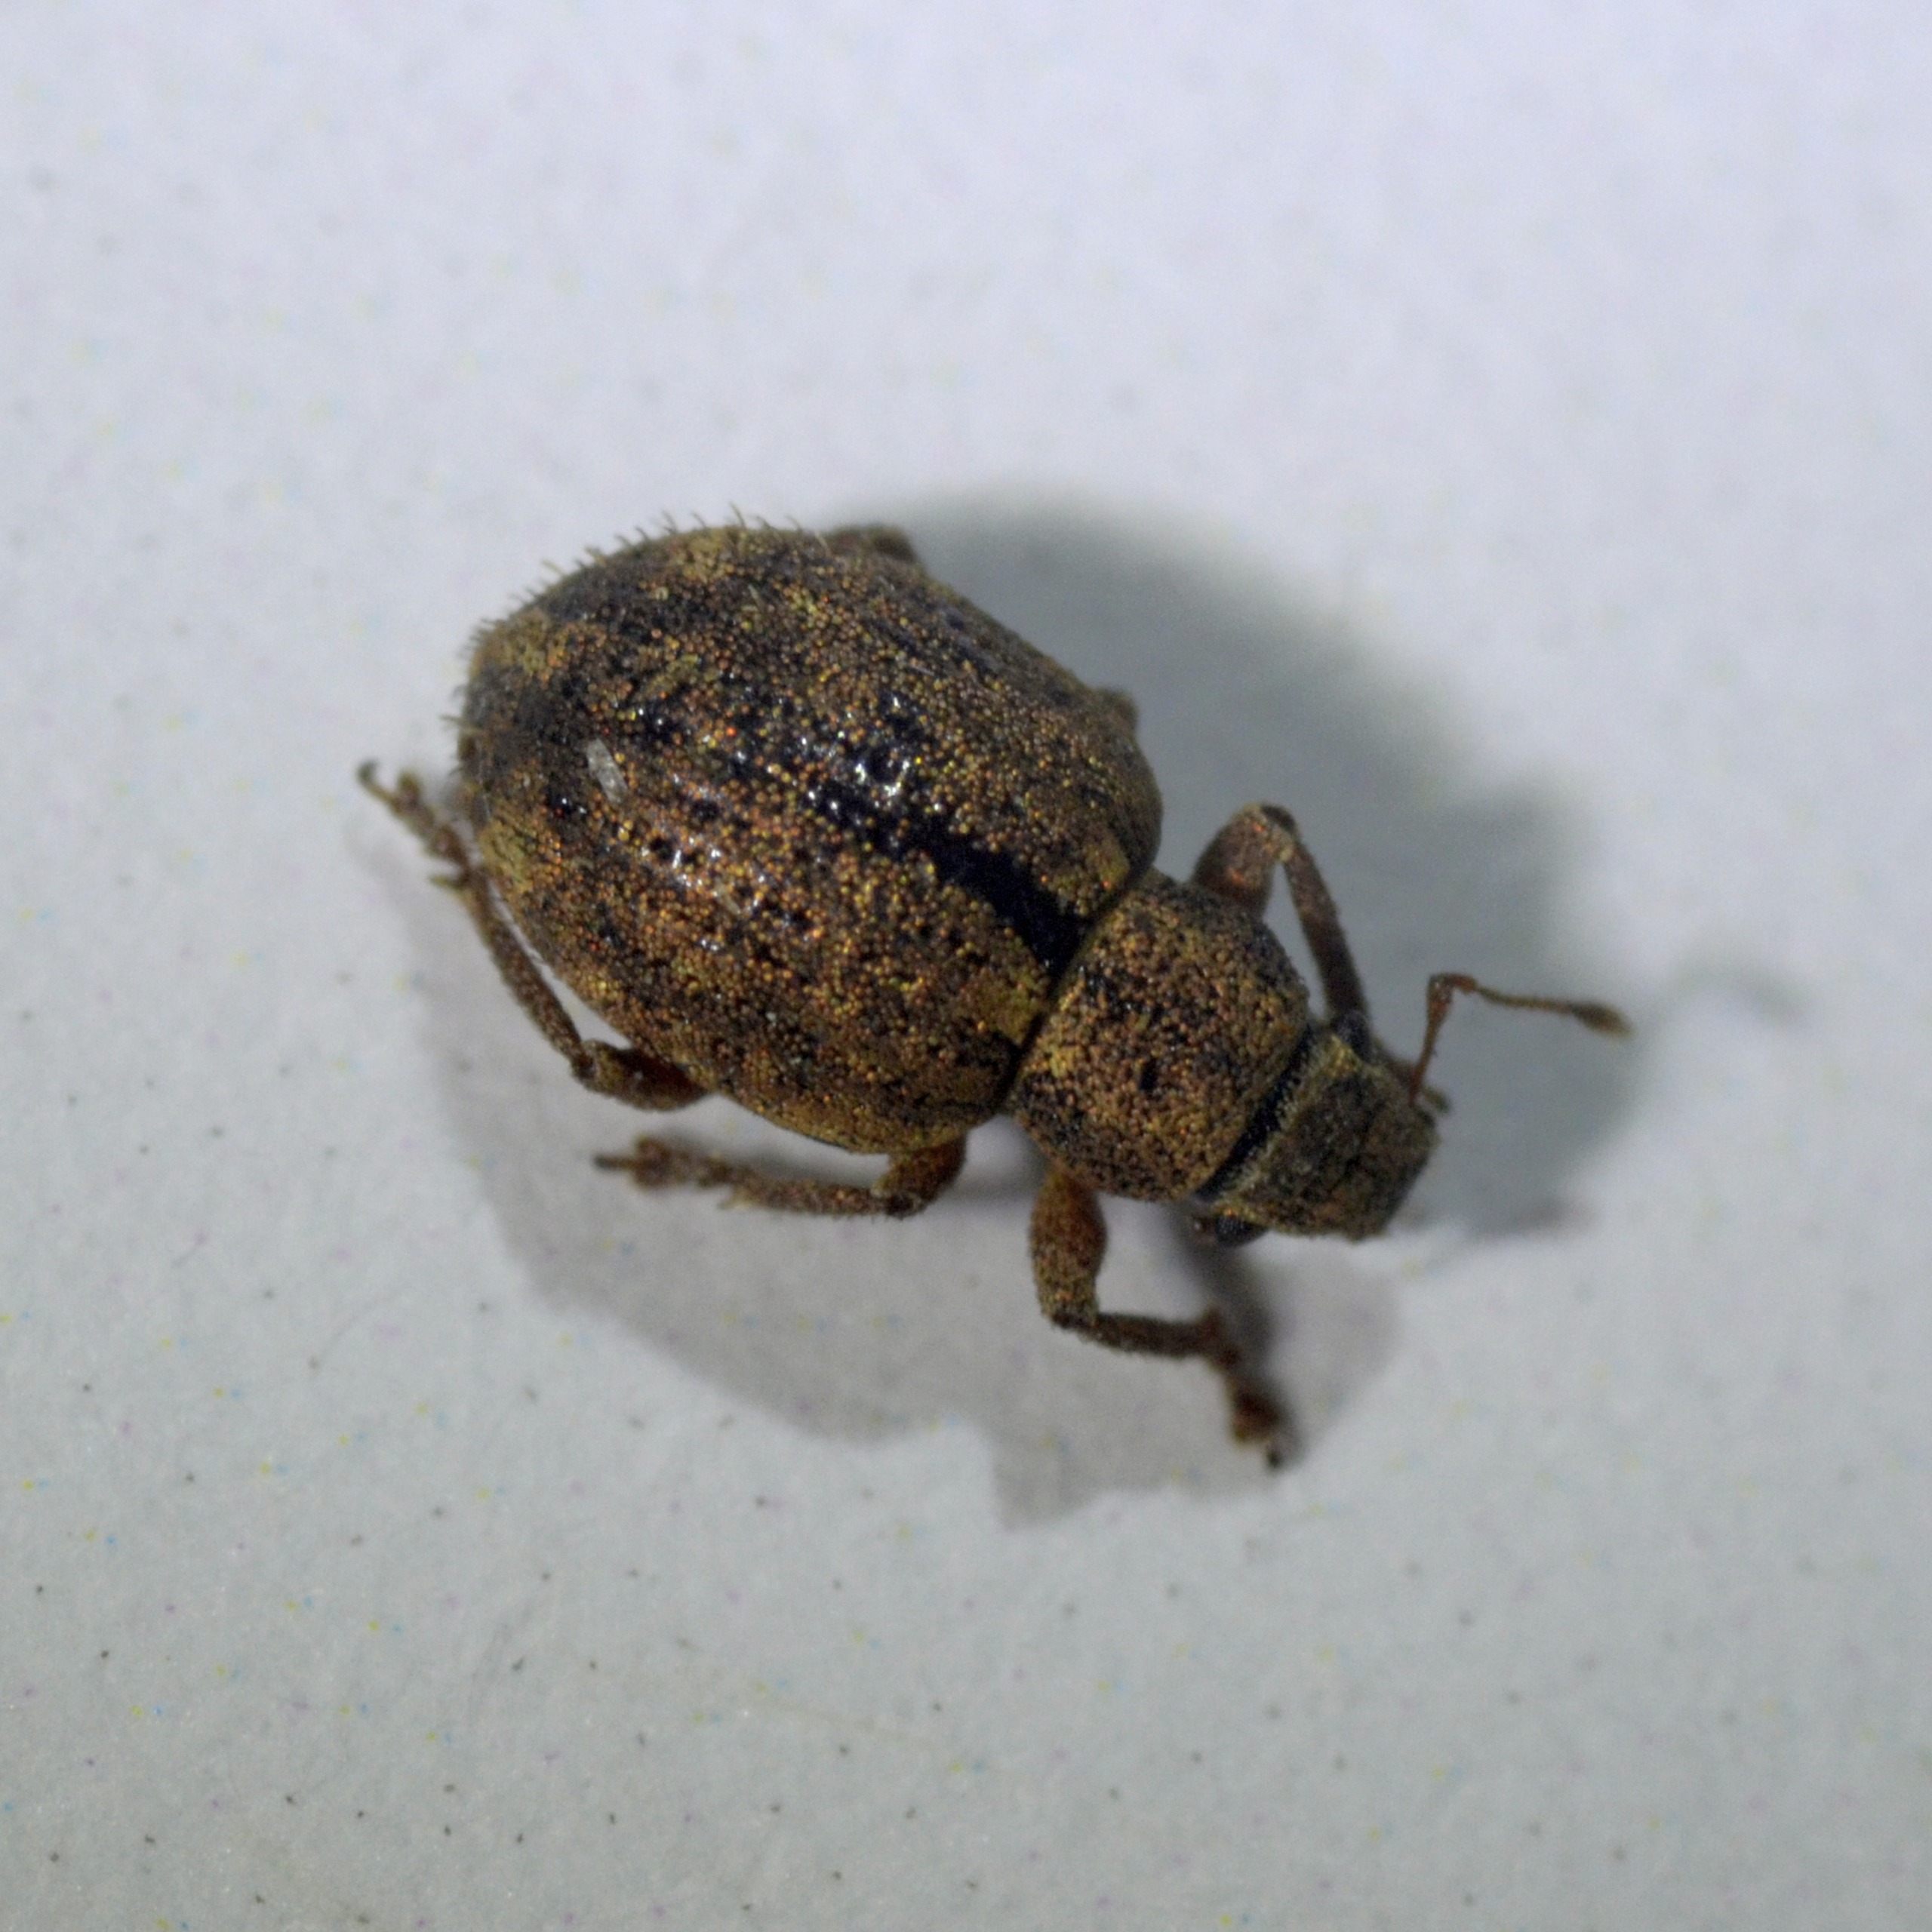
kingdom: Animalia
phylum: Arthropoda
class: Insecta
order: Coleoptera
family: Curculionidae
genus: Strophosoma
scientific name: Strophosoma melanogrammum
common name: Stribet gråsnude
